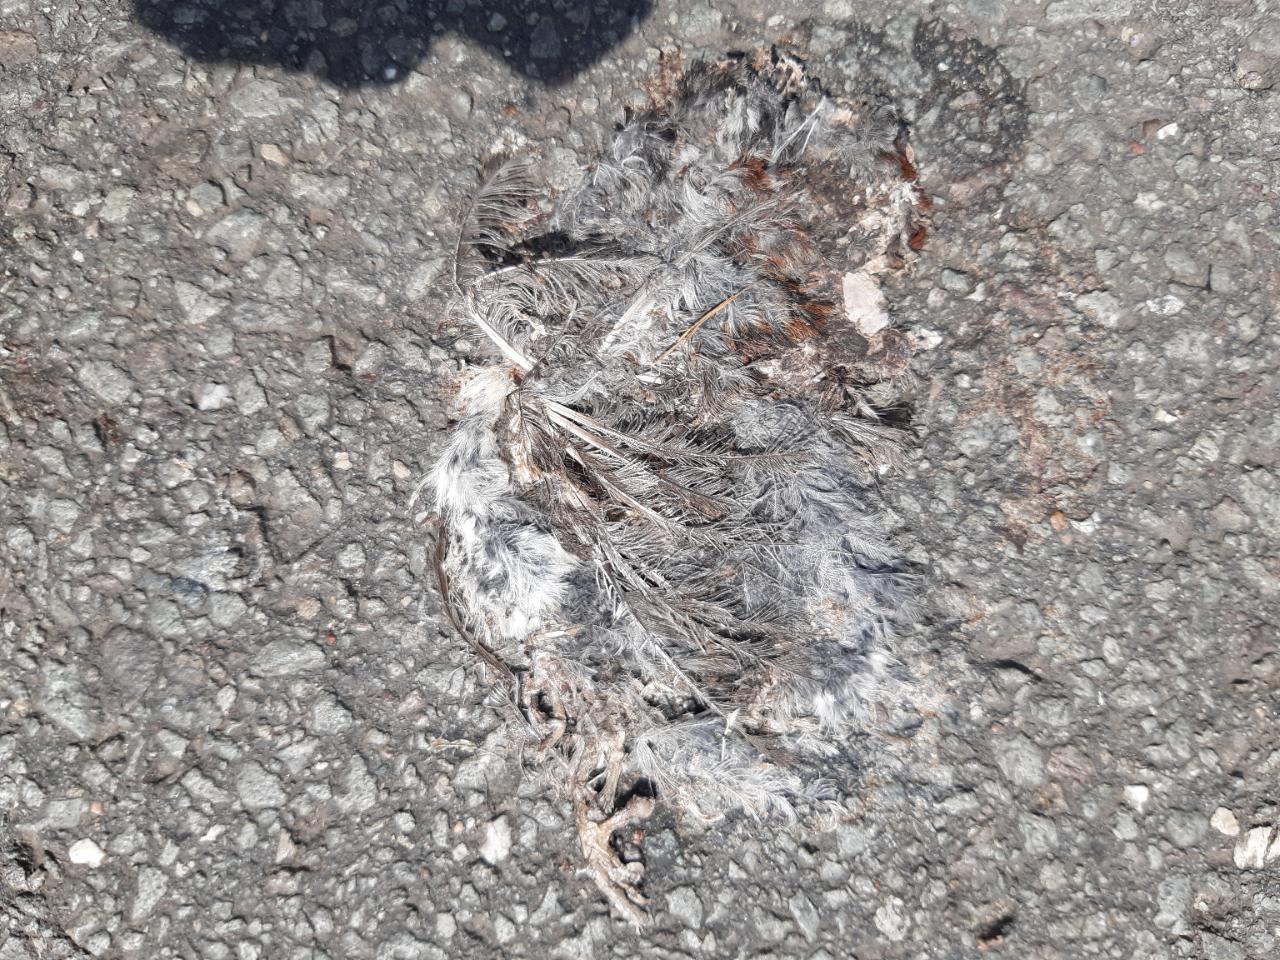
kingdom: Animalia
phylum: Chordata
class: Aves
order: Passeriformes
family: Passeridae
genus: Passer
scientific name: Passer domesticus
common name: House sparrow
